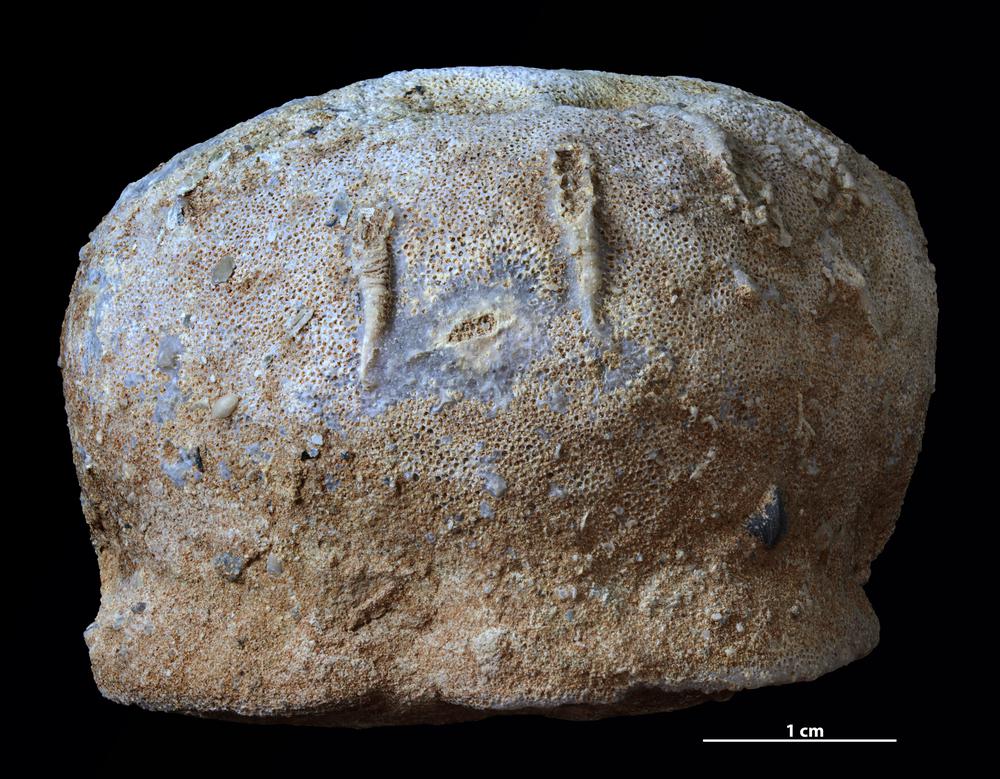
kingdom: Animalia
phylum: Bryozoa
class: Stenolaemata
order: Trepostomatida
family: Diplotrypidae
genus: Diplotrypa
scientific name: Diplotrypa petropolitana
